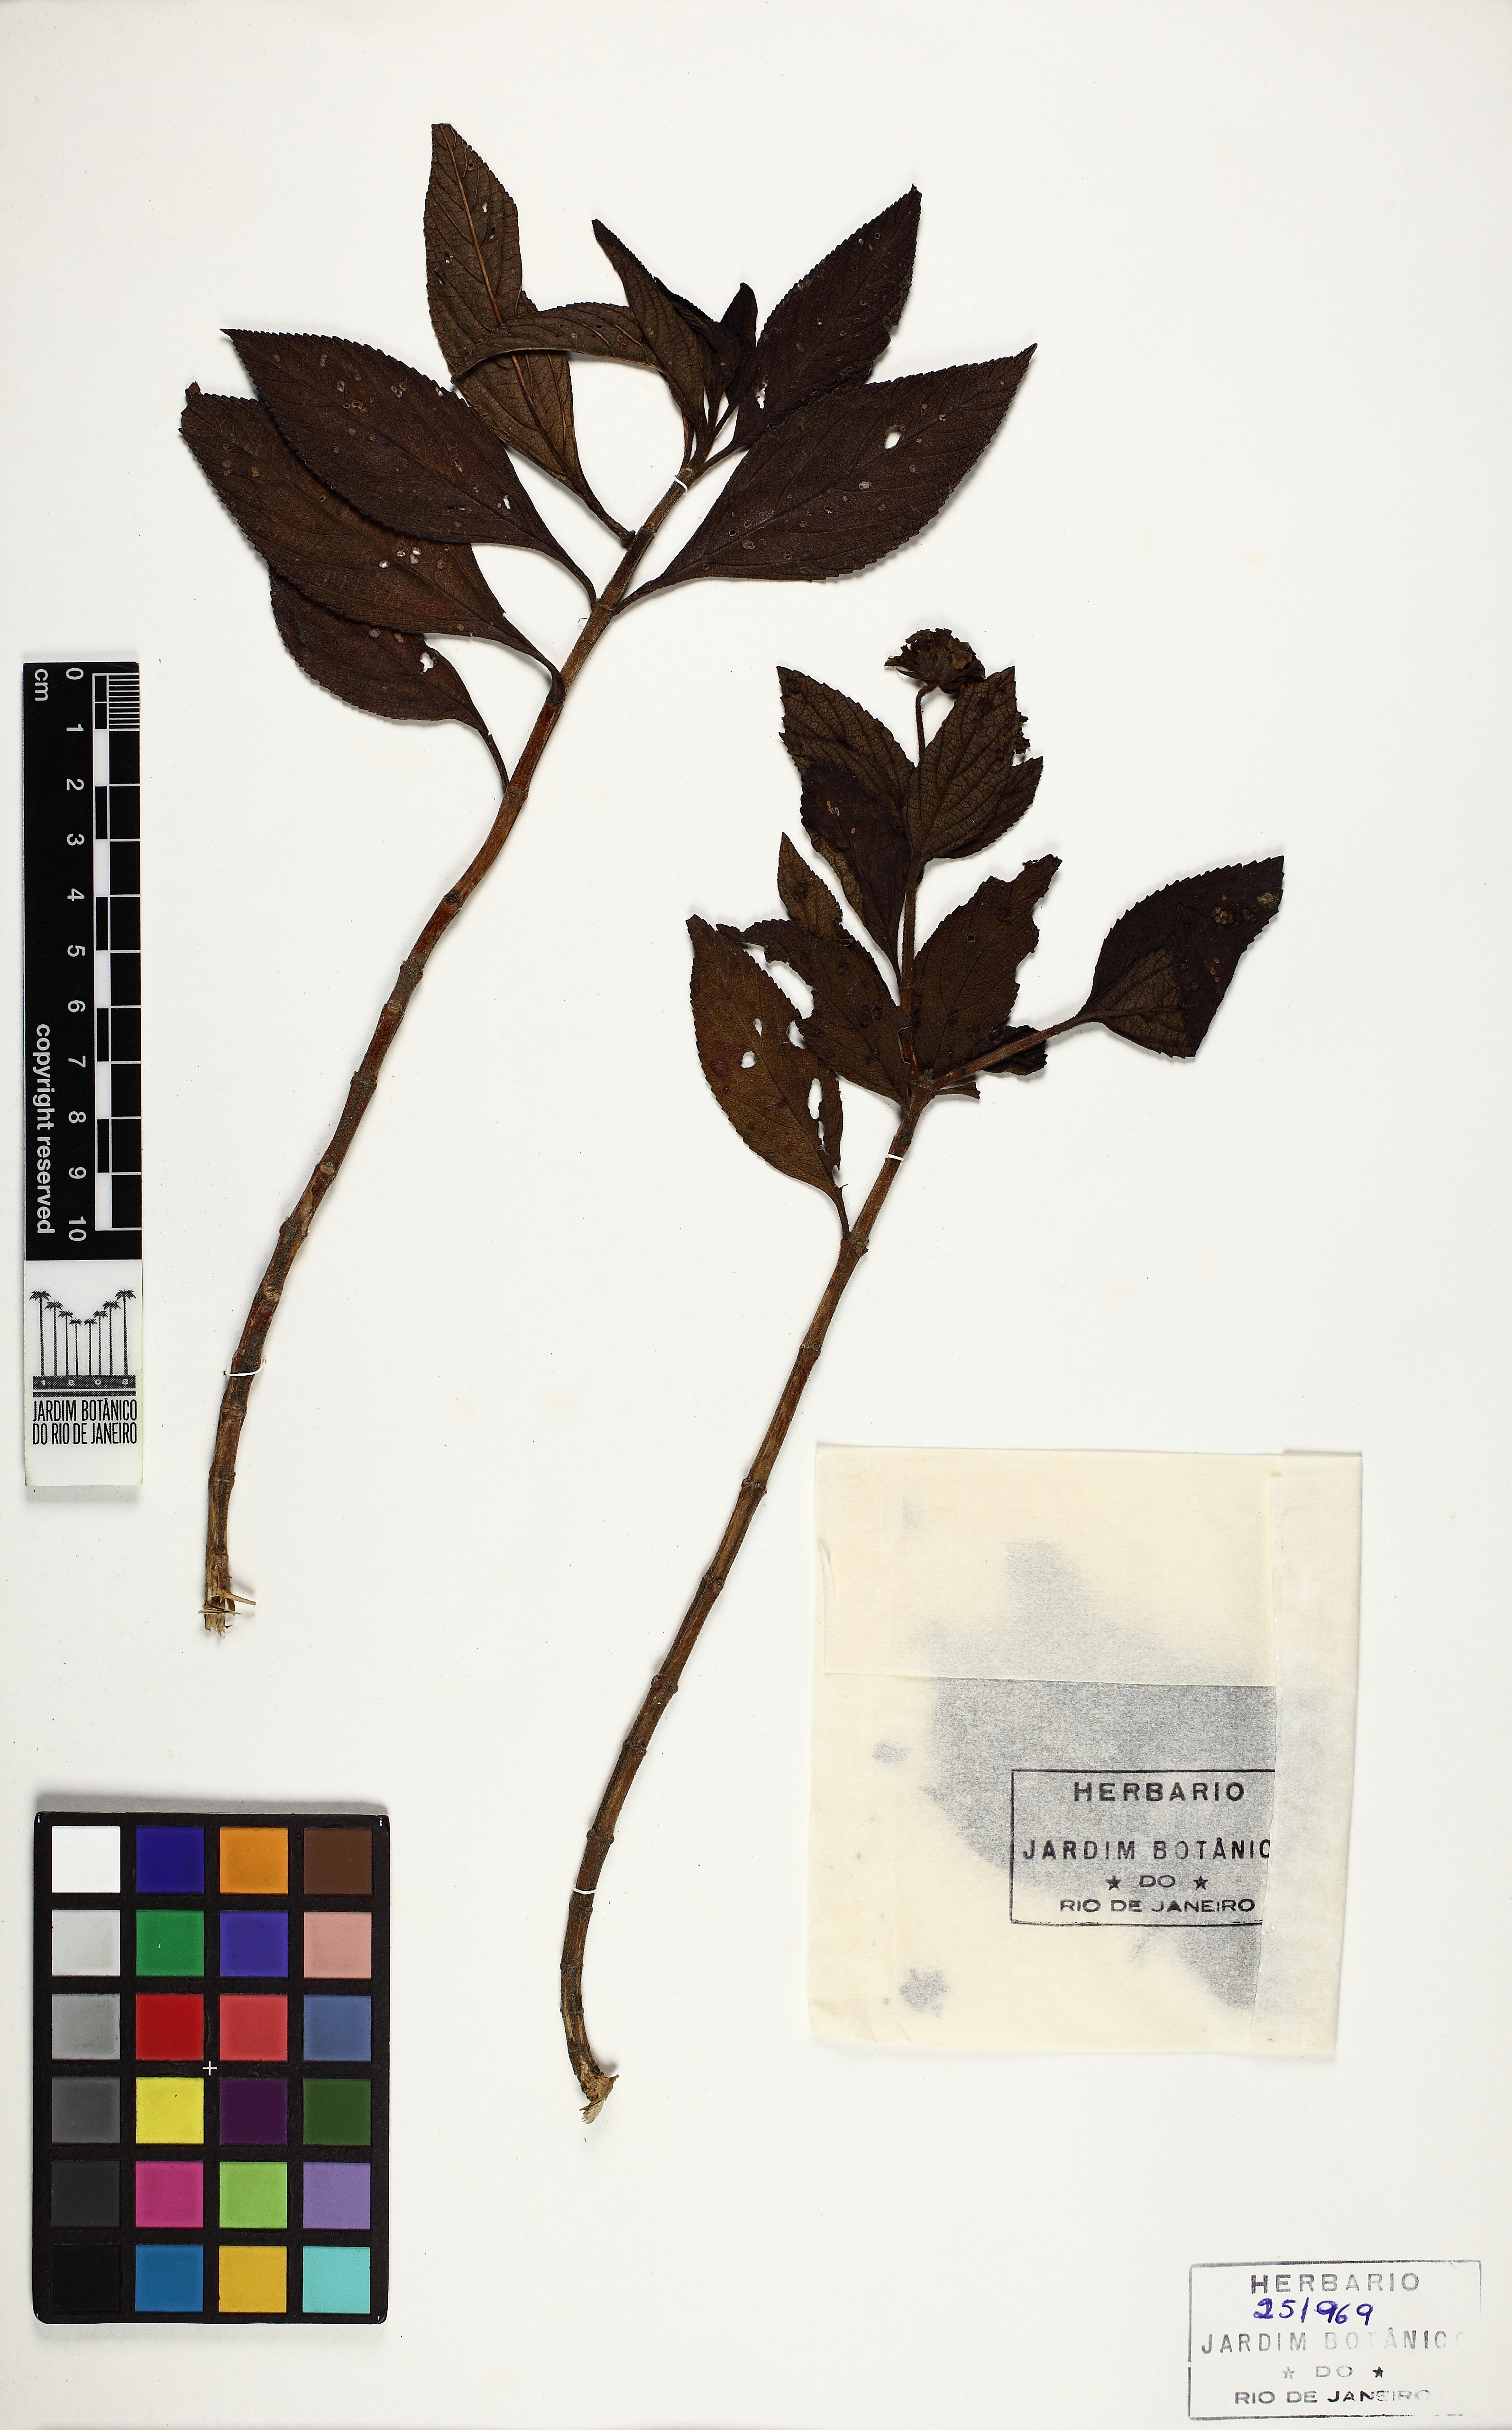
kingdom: Plantae
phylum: Tracheophyta
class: Magnoliopsida
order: Lamiales
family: Verbenaceae
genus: Lantana
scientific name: Lantana
